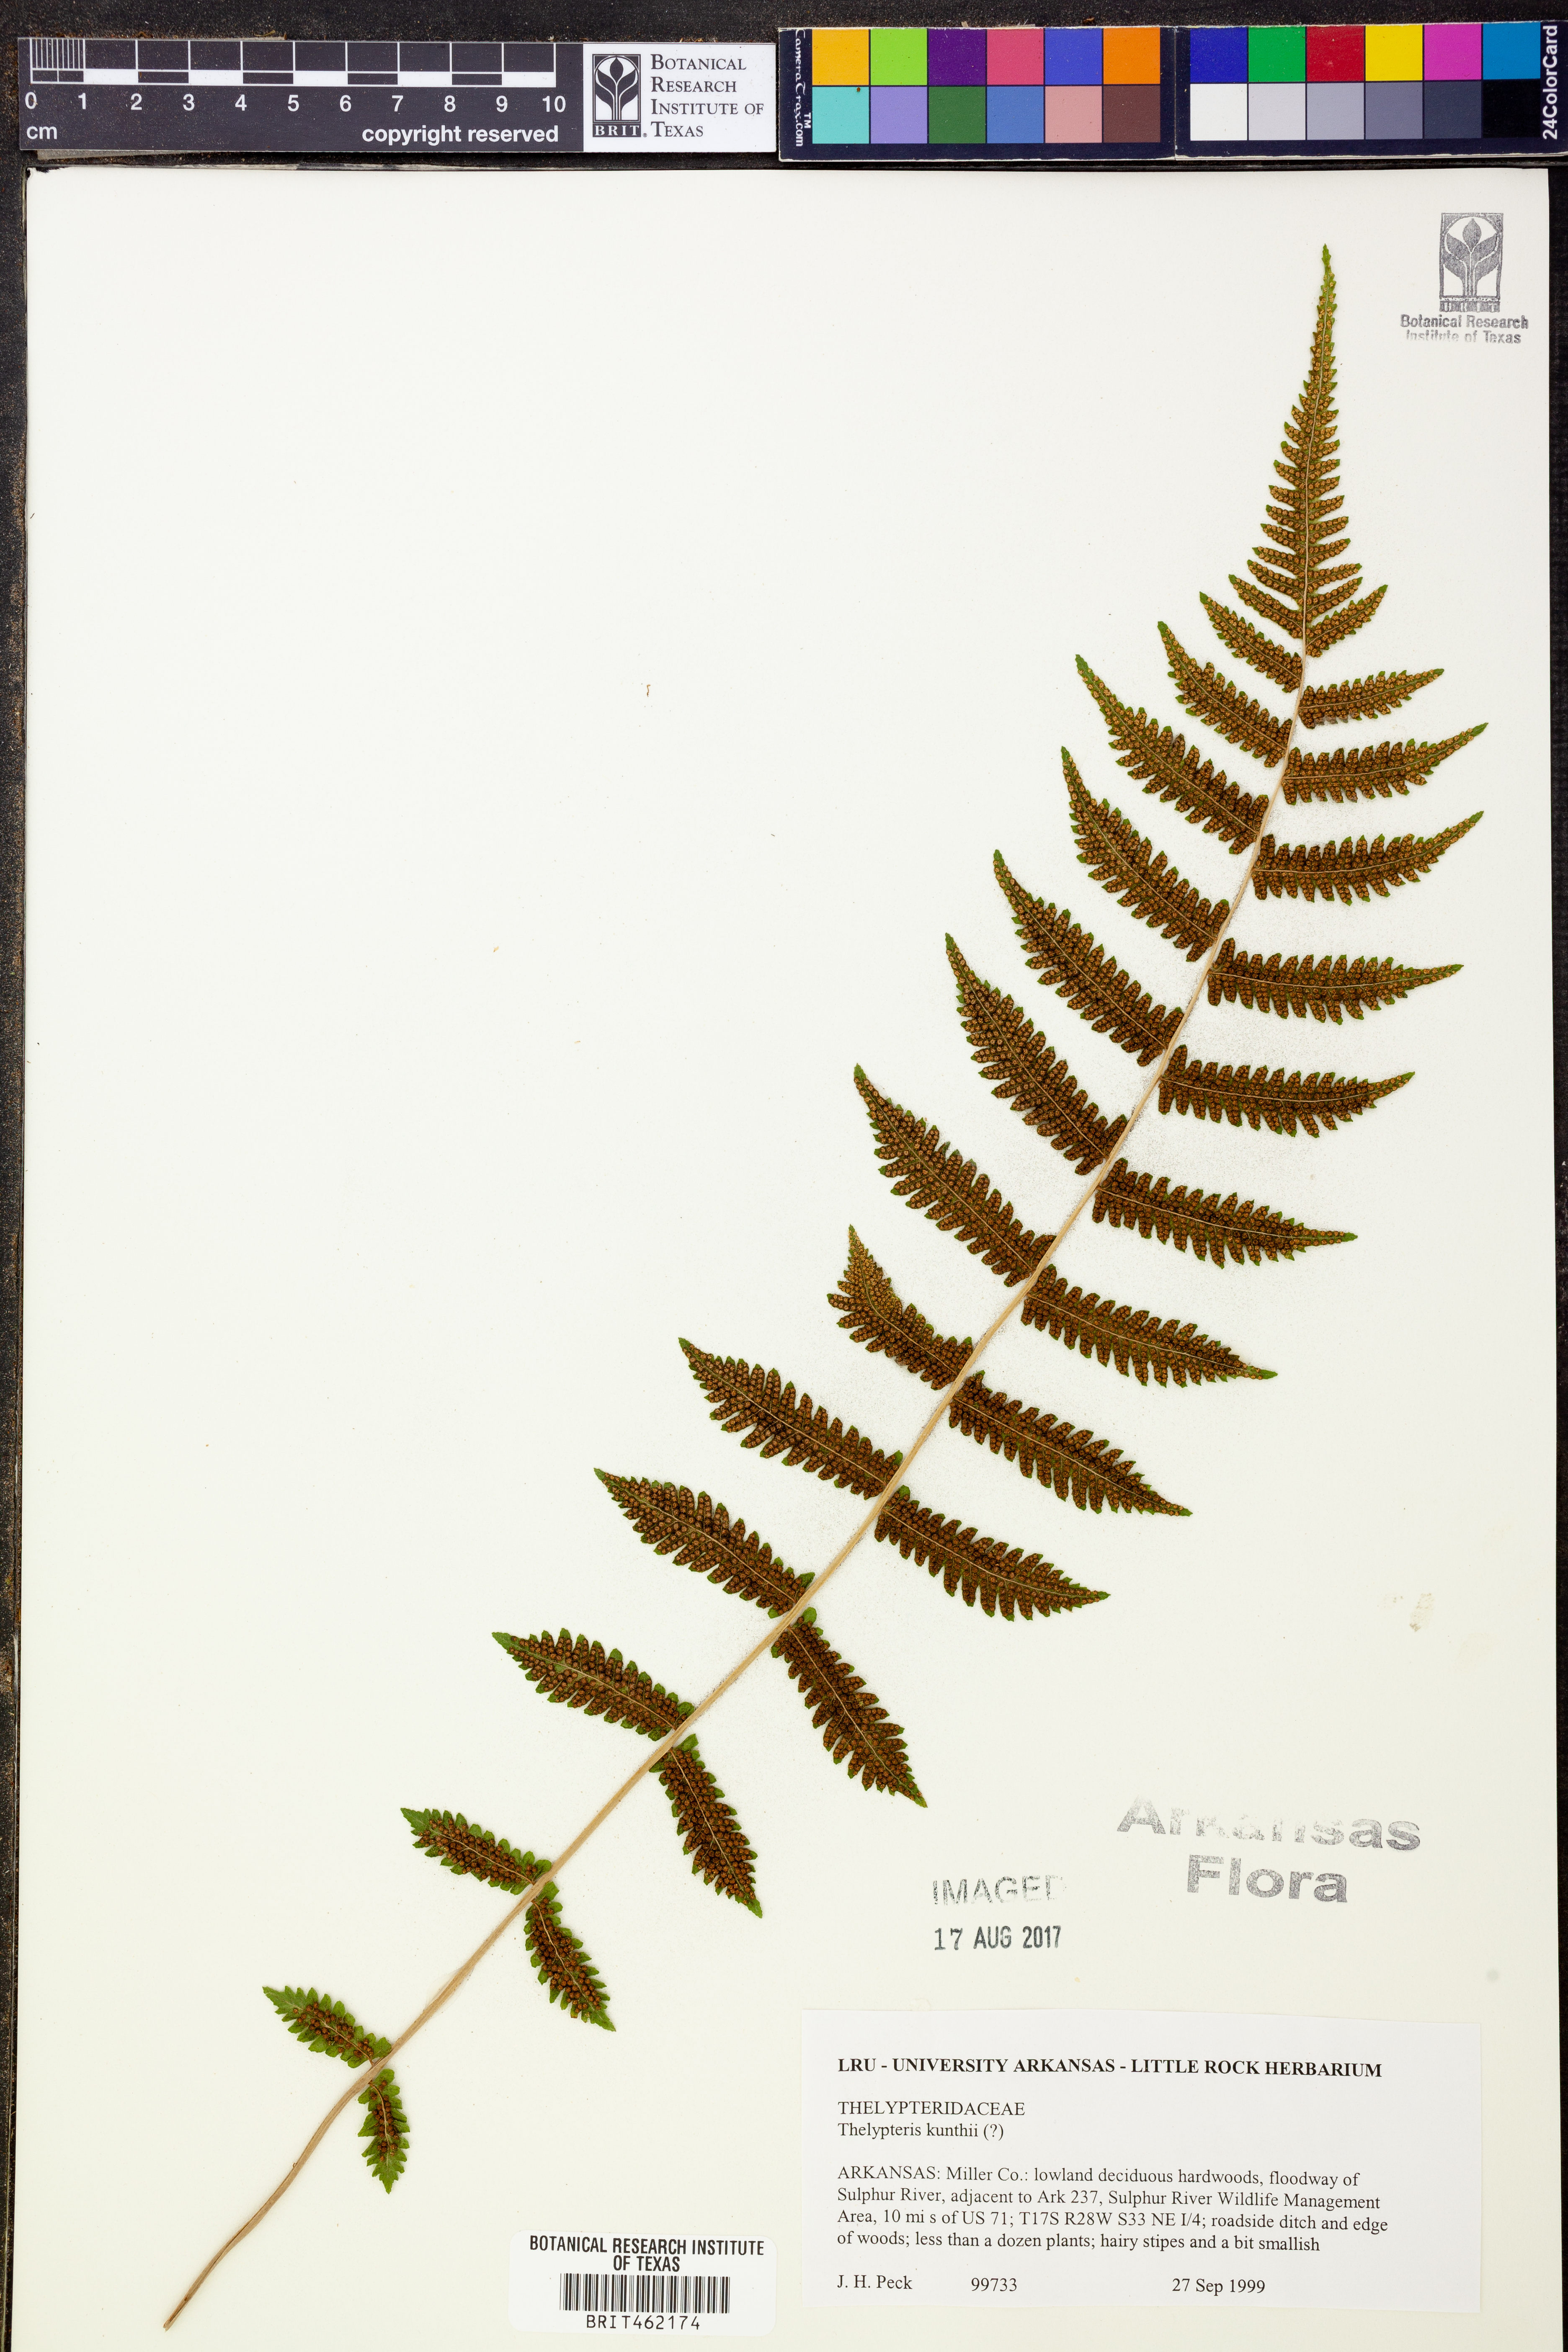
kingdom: Plantae
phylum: Tracheophyta
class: Polypodiopsida
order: Polypodiales
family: Thelypteridaceae
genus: Pelazoneuron
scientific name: Pelazoneuron kunthii
